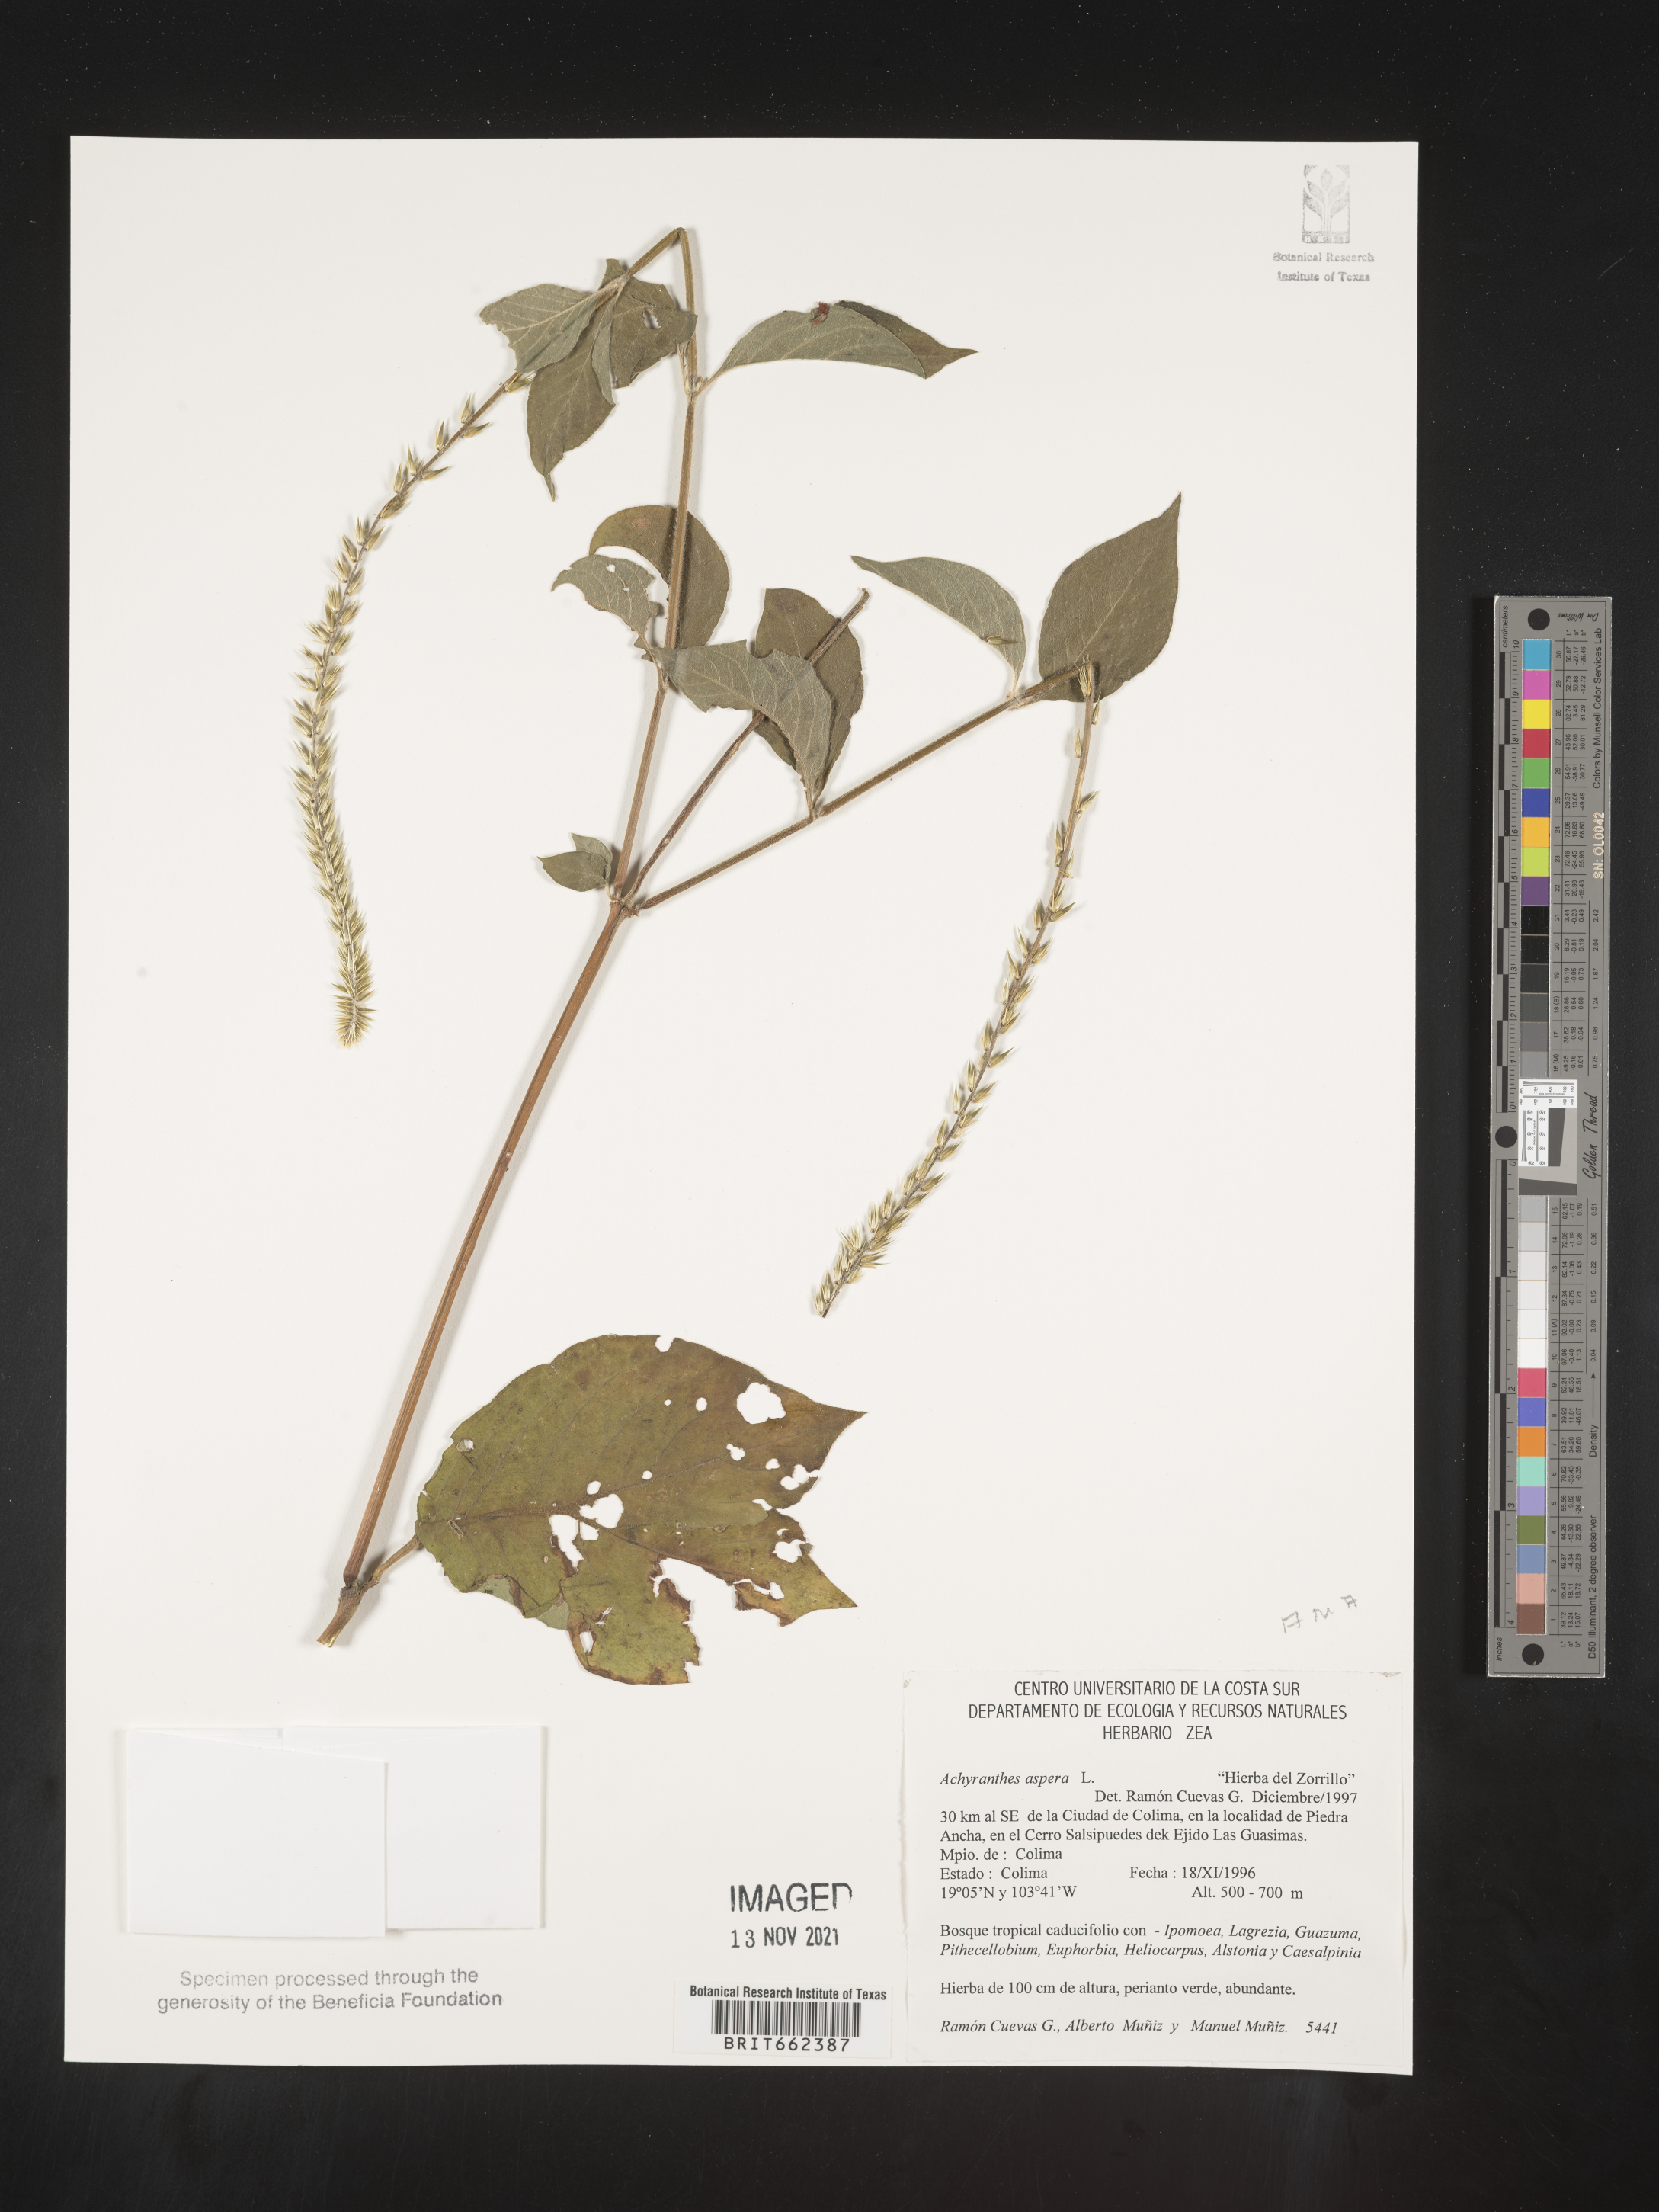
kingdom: Plantae
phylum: Tracheophyta
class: Magnoliopsida
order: Caryophyllales
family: Amaranthaceae
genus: Achyranthes
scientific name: Achyranthes
